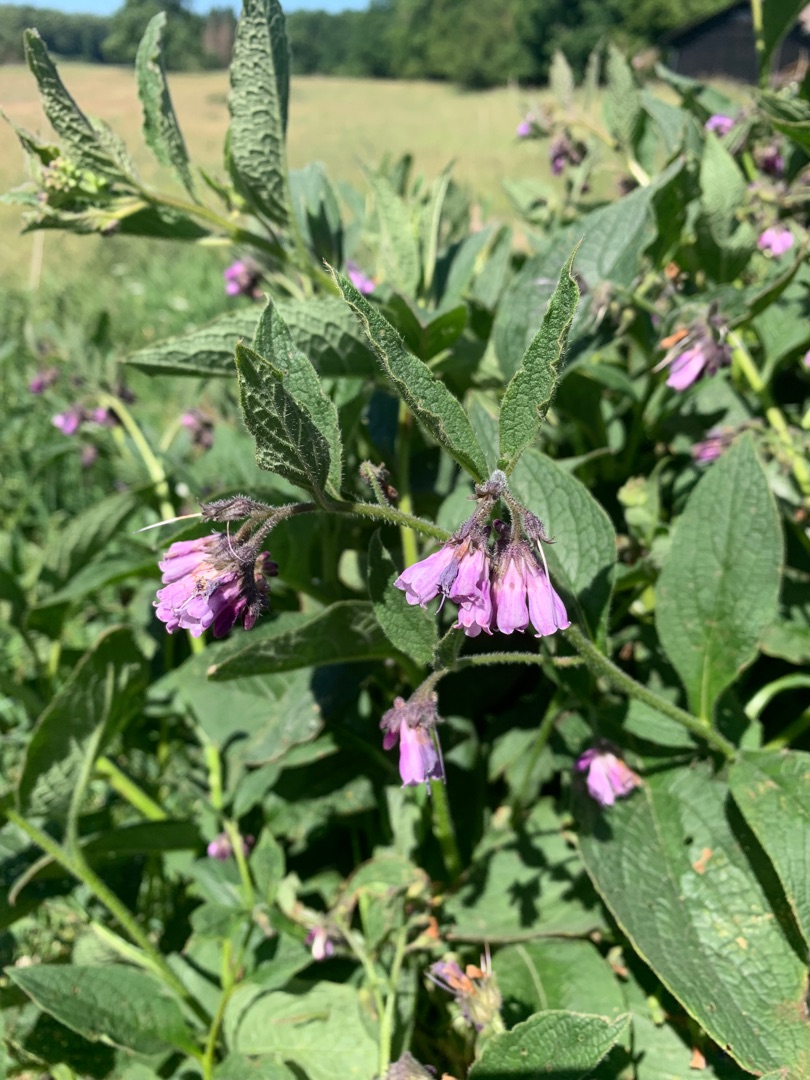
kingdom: Plantae
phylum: Tracheophyta
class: Magnoliopsida
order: Boraginales
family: Boraginaceae
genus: Symphytum
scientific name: Symphytum uplandicum
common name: Foder-kulsukker
